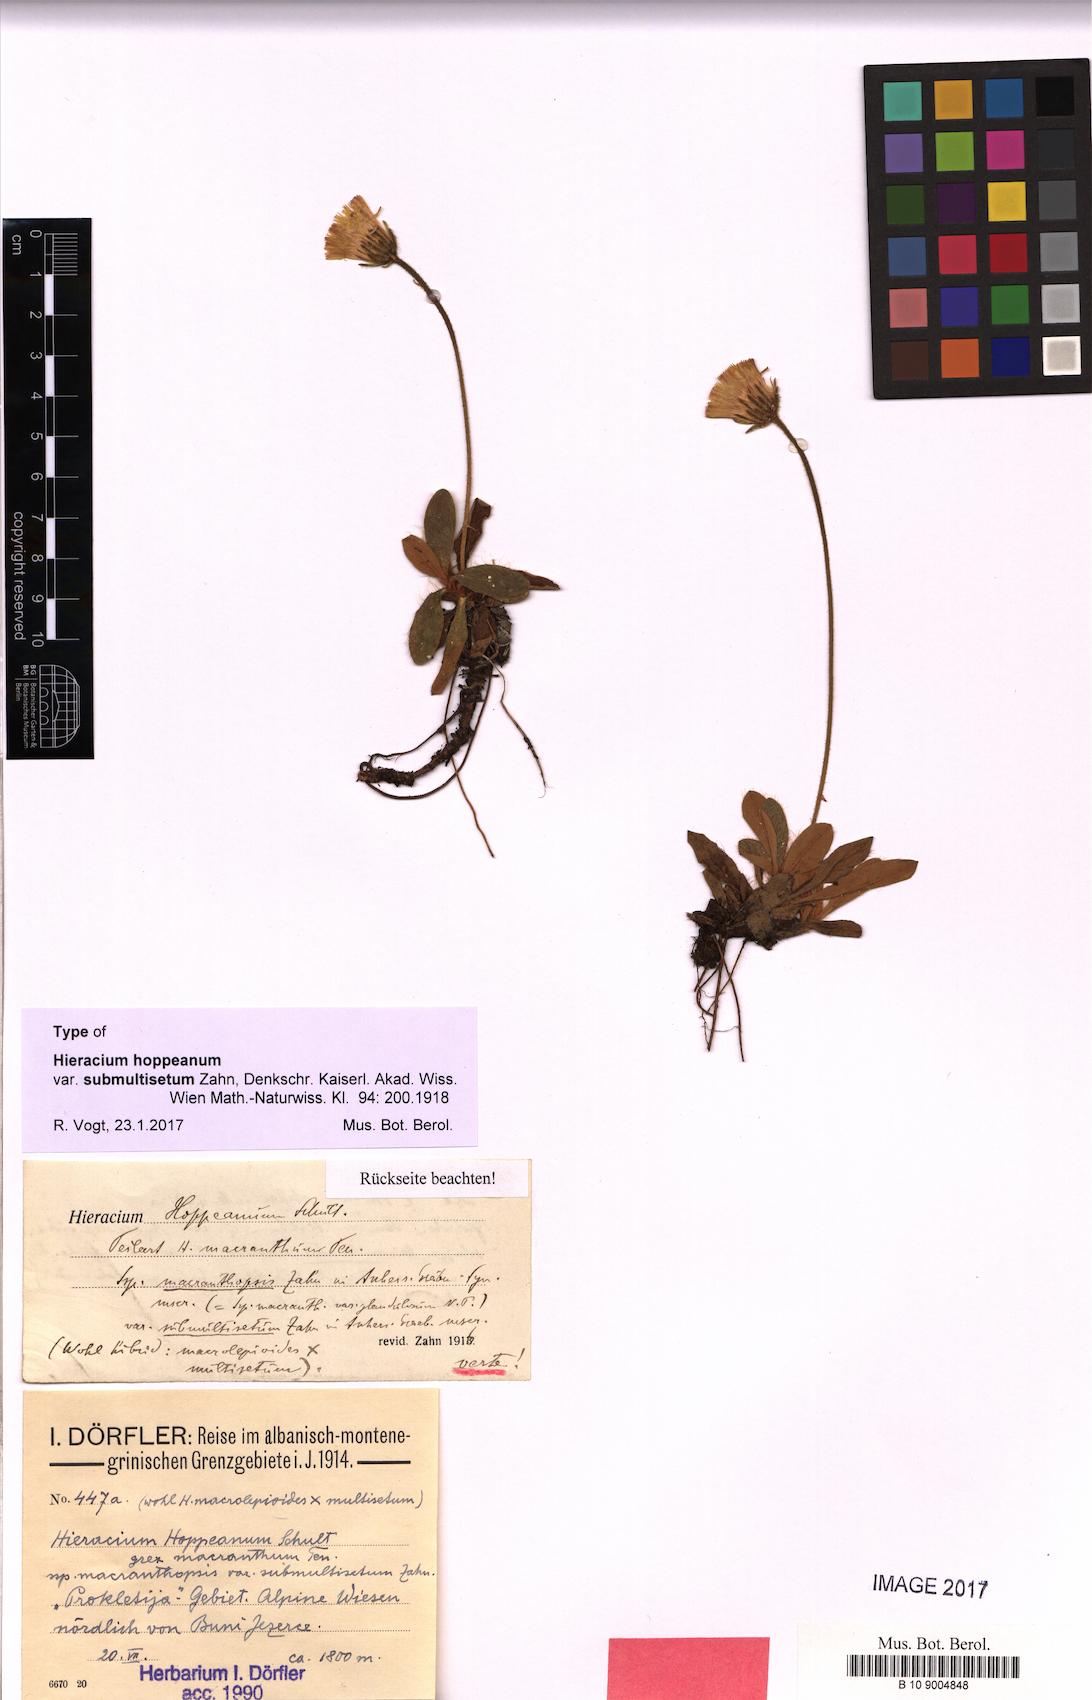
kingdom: Plantae
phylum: Tracheophyta
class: Magnoliopsida
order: Asterales
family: Asteraceae
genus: Pilosella
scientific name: Pilosella leucopsilon
